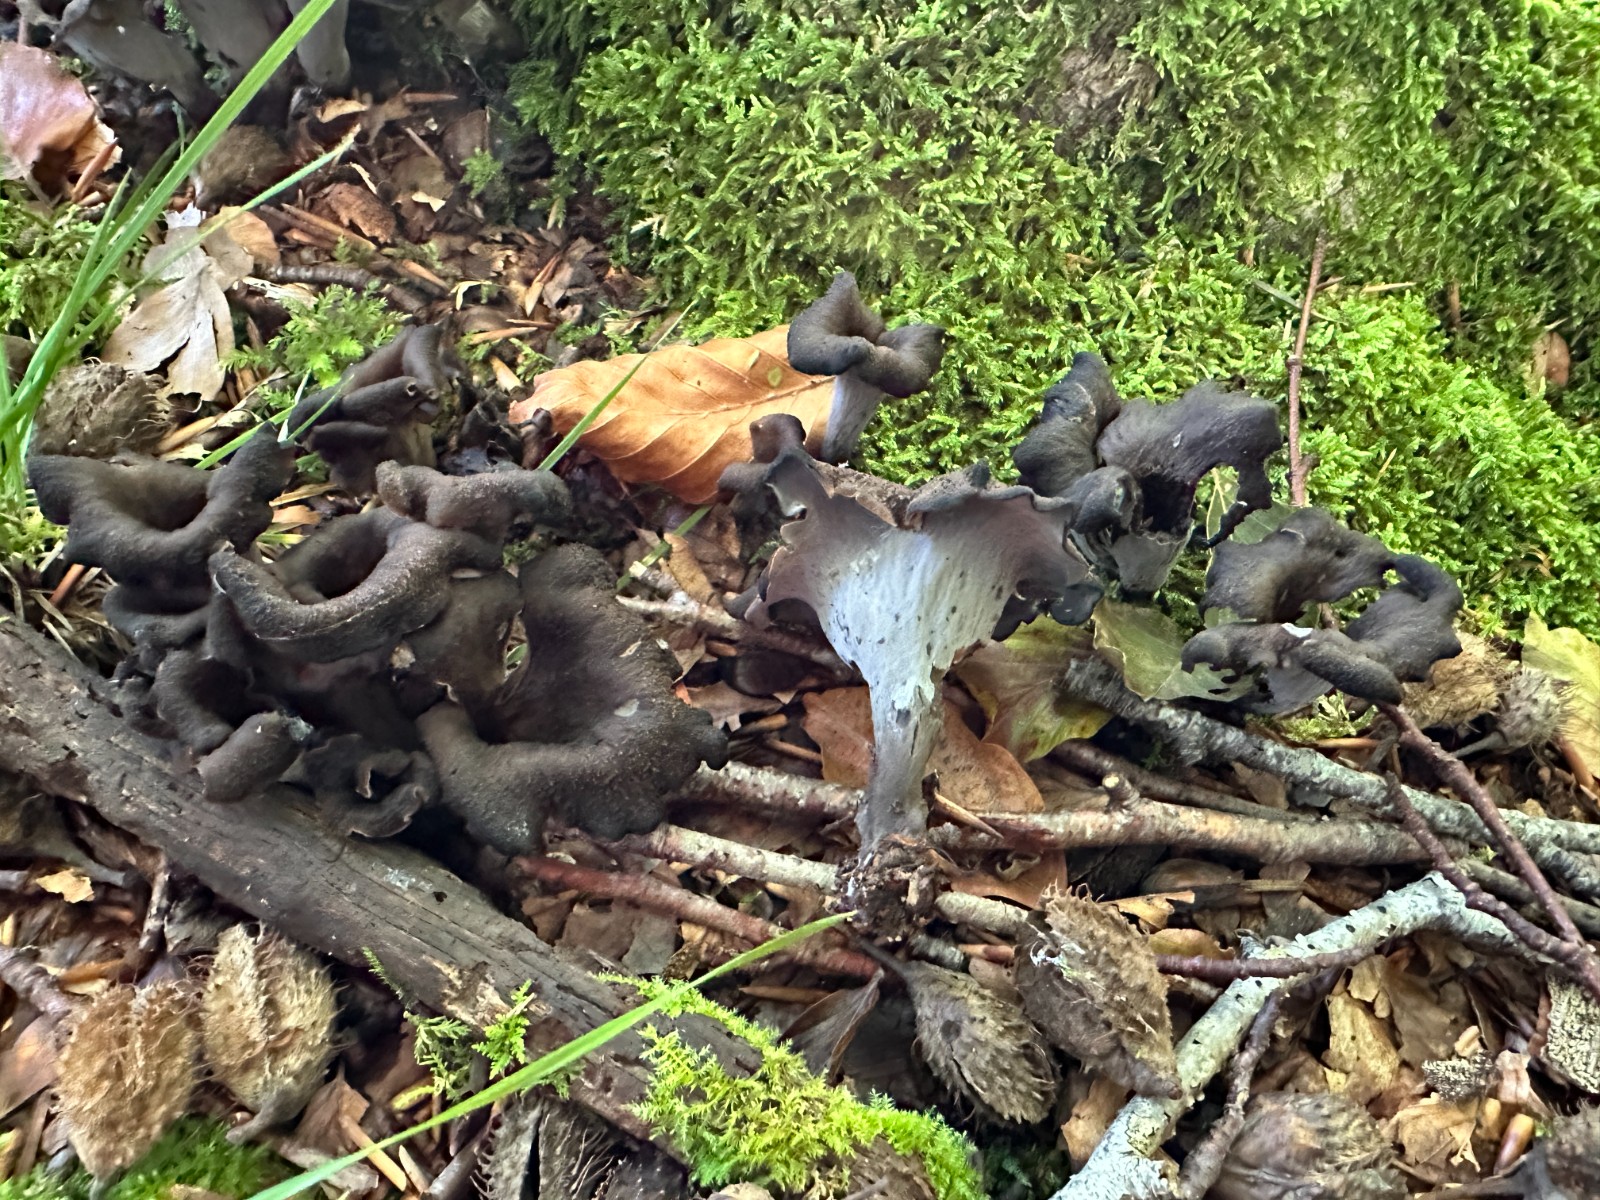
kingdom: Fungi
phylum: Basidiomycota
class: Agaricomycetes
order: Cantharellales
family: Hydnaceae
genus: Craterellus
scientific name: Craterellus cornucopioides
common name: trompetsvamp
